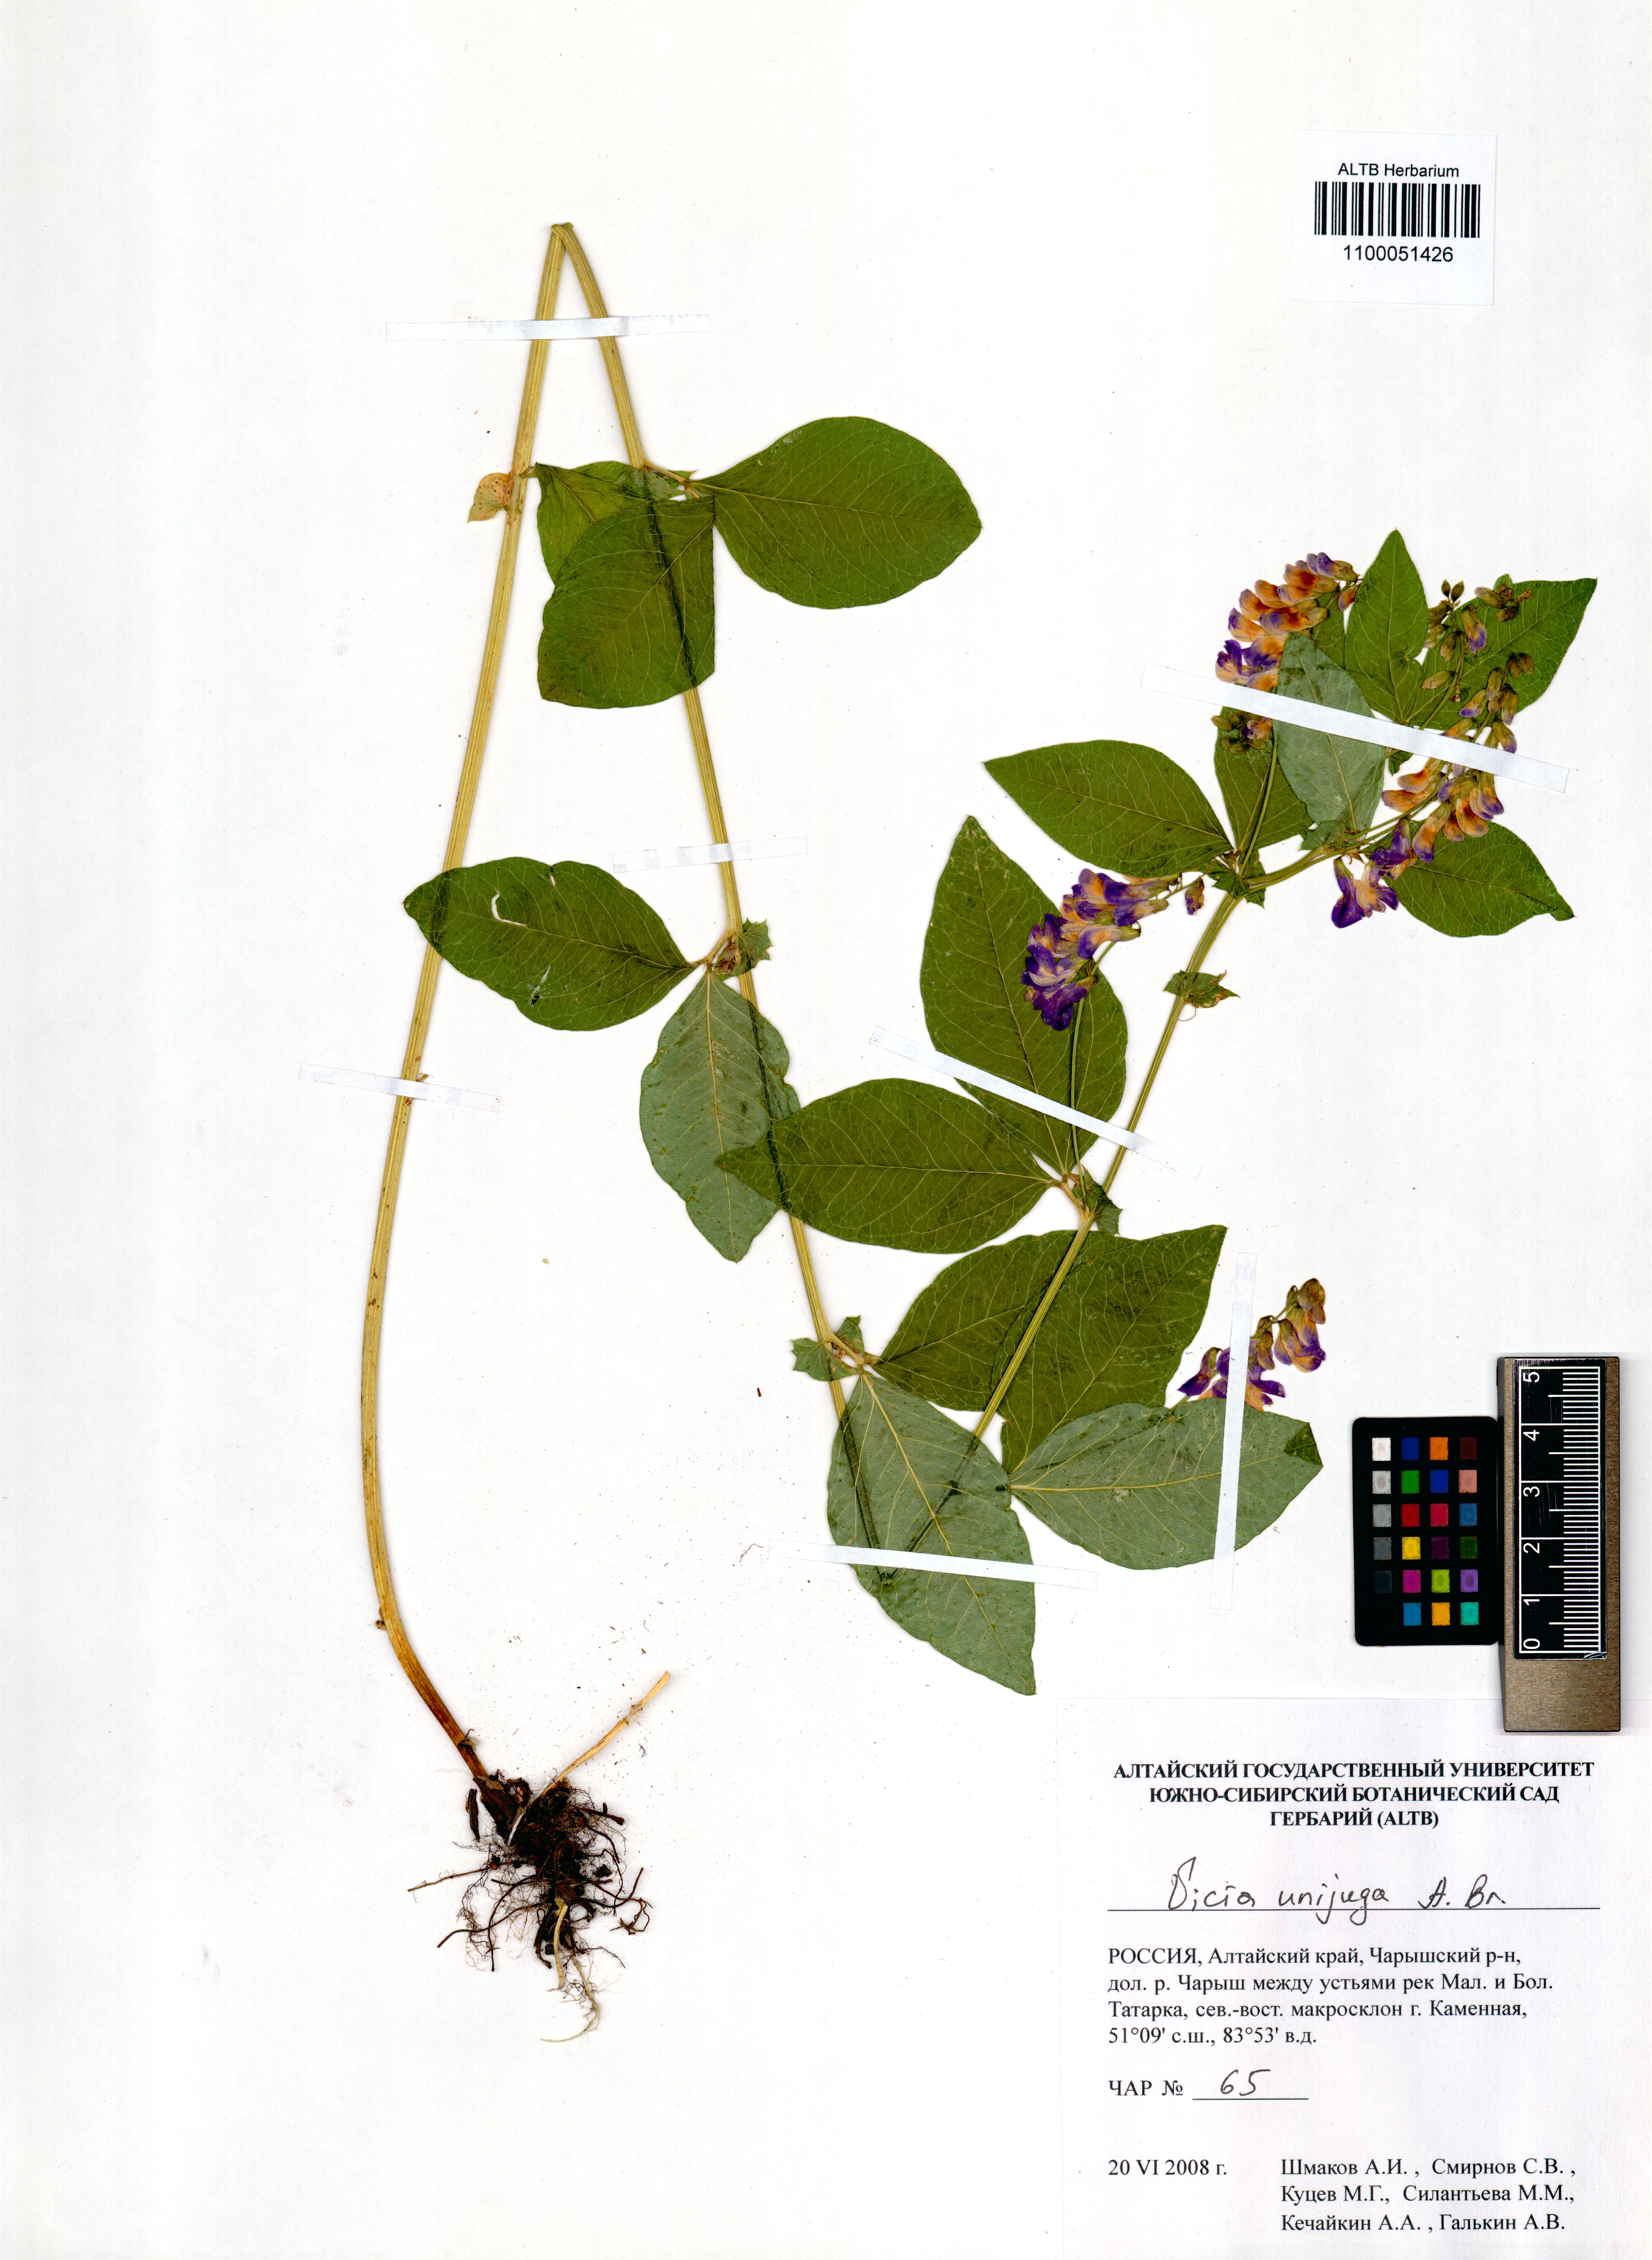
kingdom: Plantae
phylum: Tracheophyta
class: Magnoliopsida
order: Fabales
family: Fabaceae
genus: Vicia
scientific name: Vicia unijuga
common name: Two-leaf vetch
